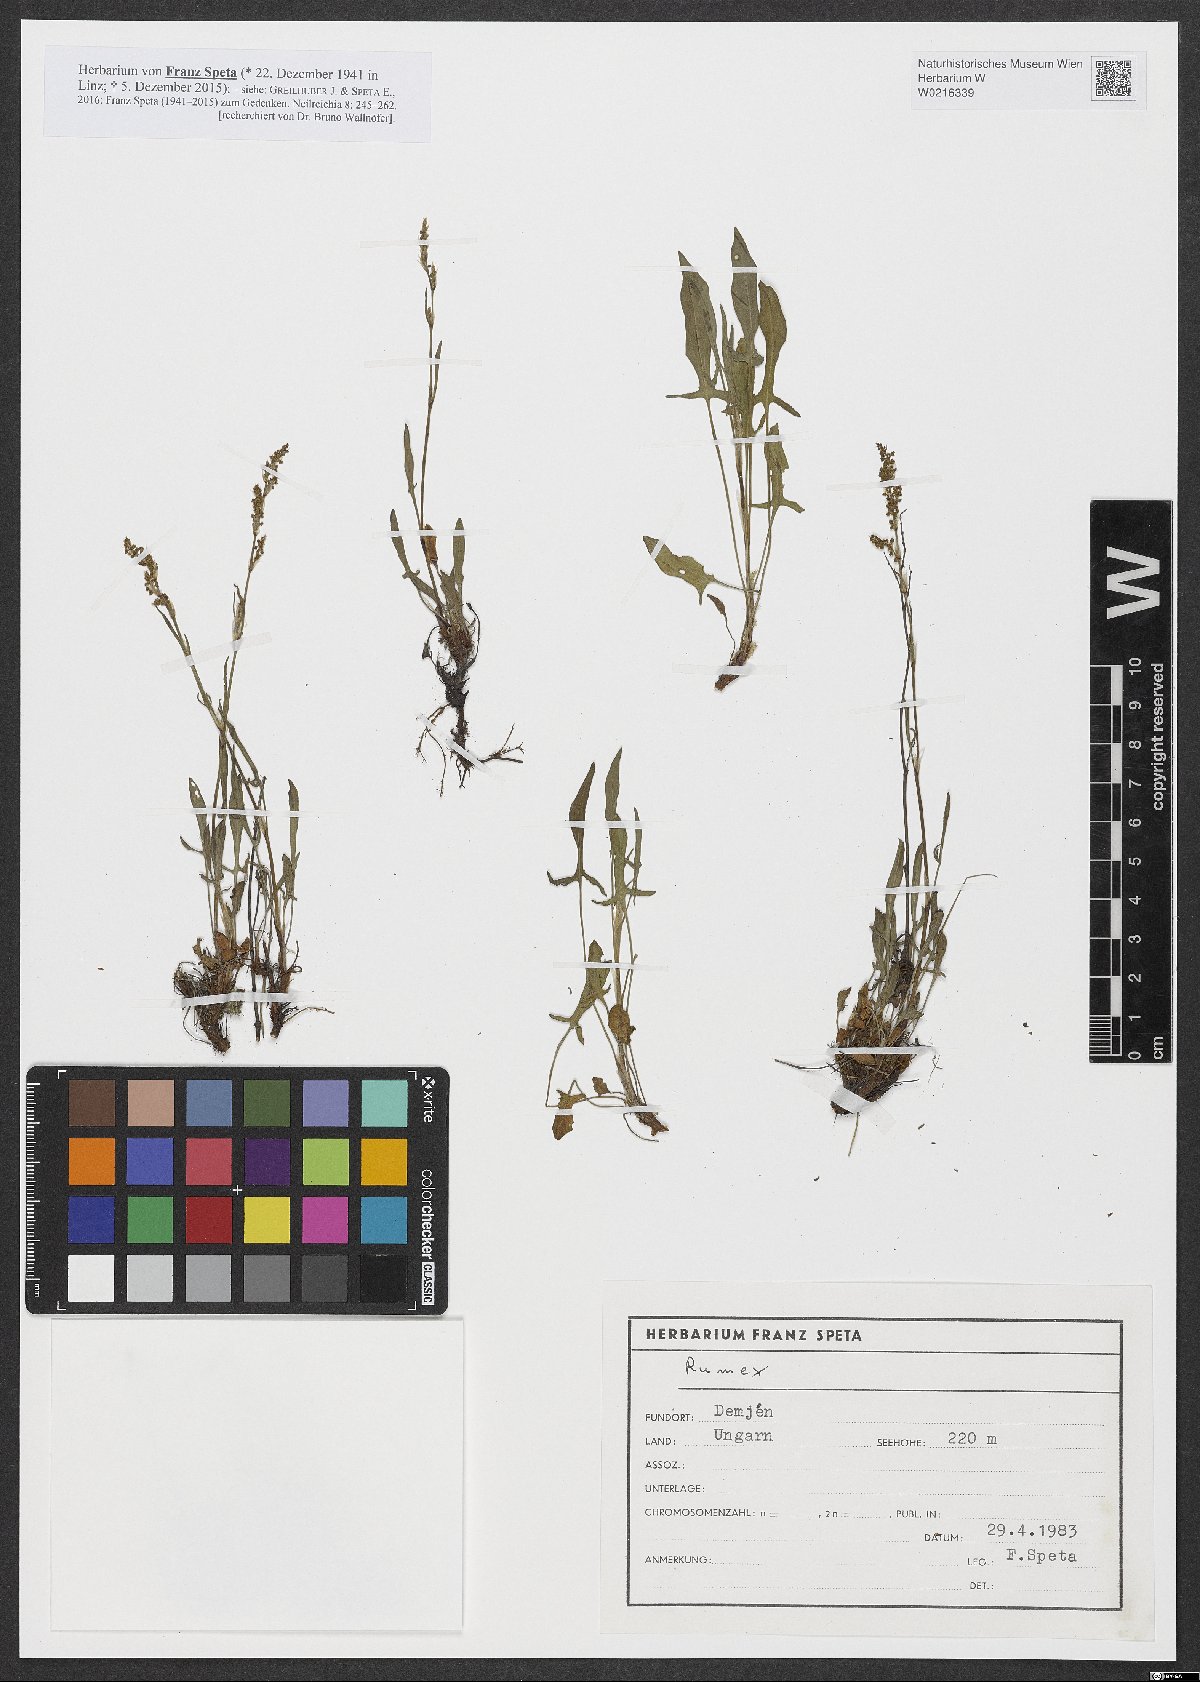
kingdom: Plantae
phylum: Tracheophyta
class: Magnoliopsida
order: Caryophyllales
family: Polygonaceae
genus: Rumex
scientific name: Rumex
